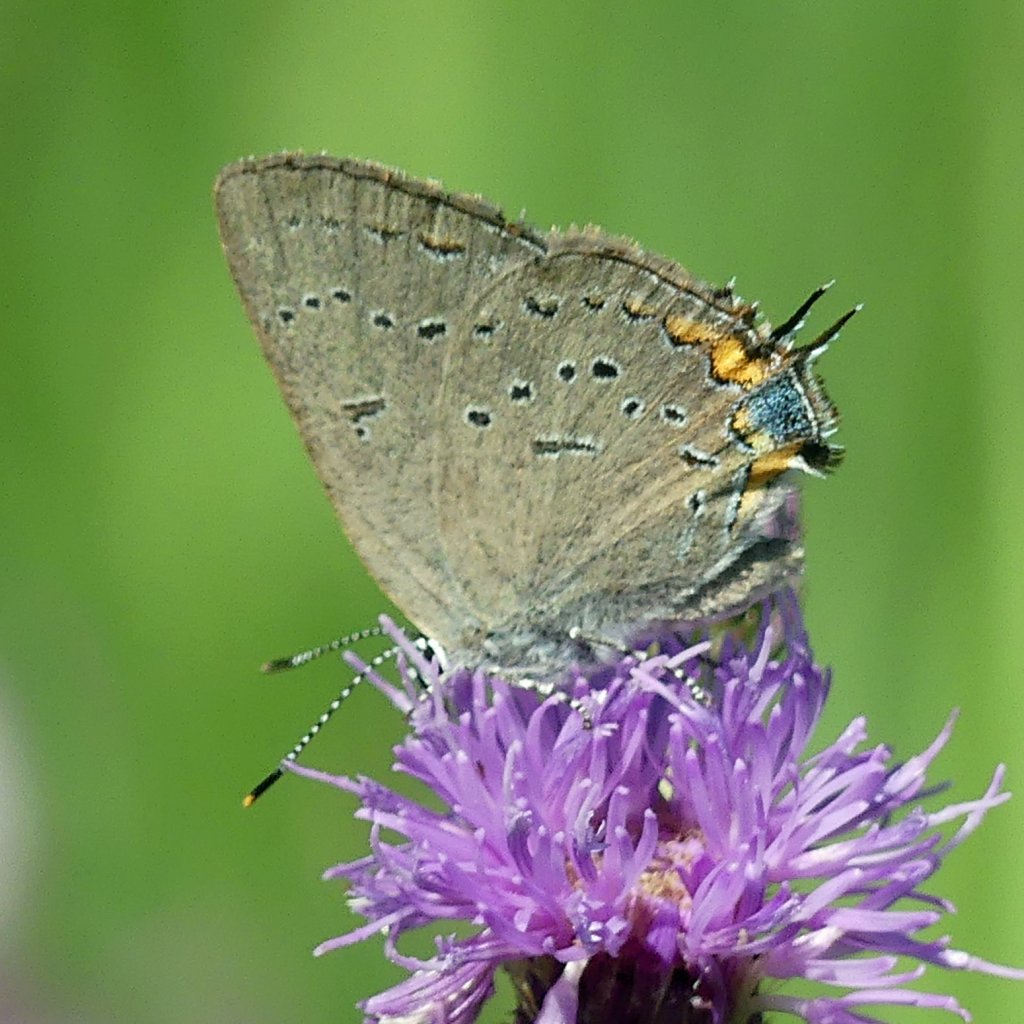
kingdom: Animalia
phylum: Arthropoda
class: Insecta
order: Lepidoptera
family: Lycaenidae
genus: Strymon
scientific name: Strymon acadica
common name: Acadian Hairstreak
